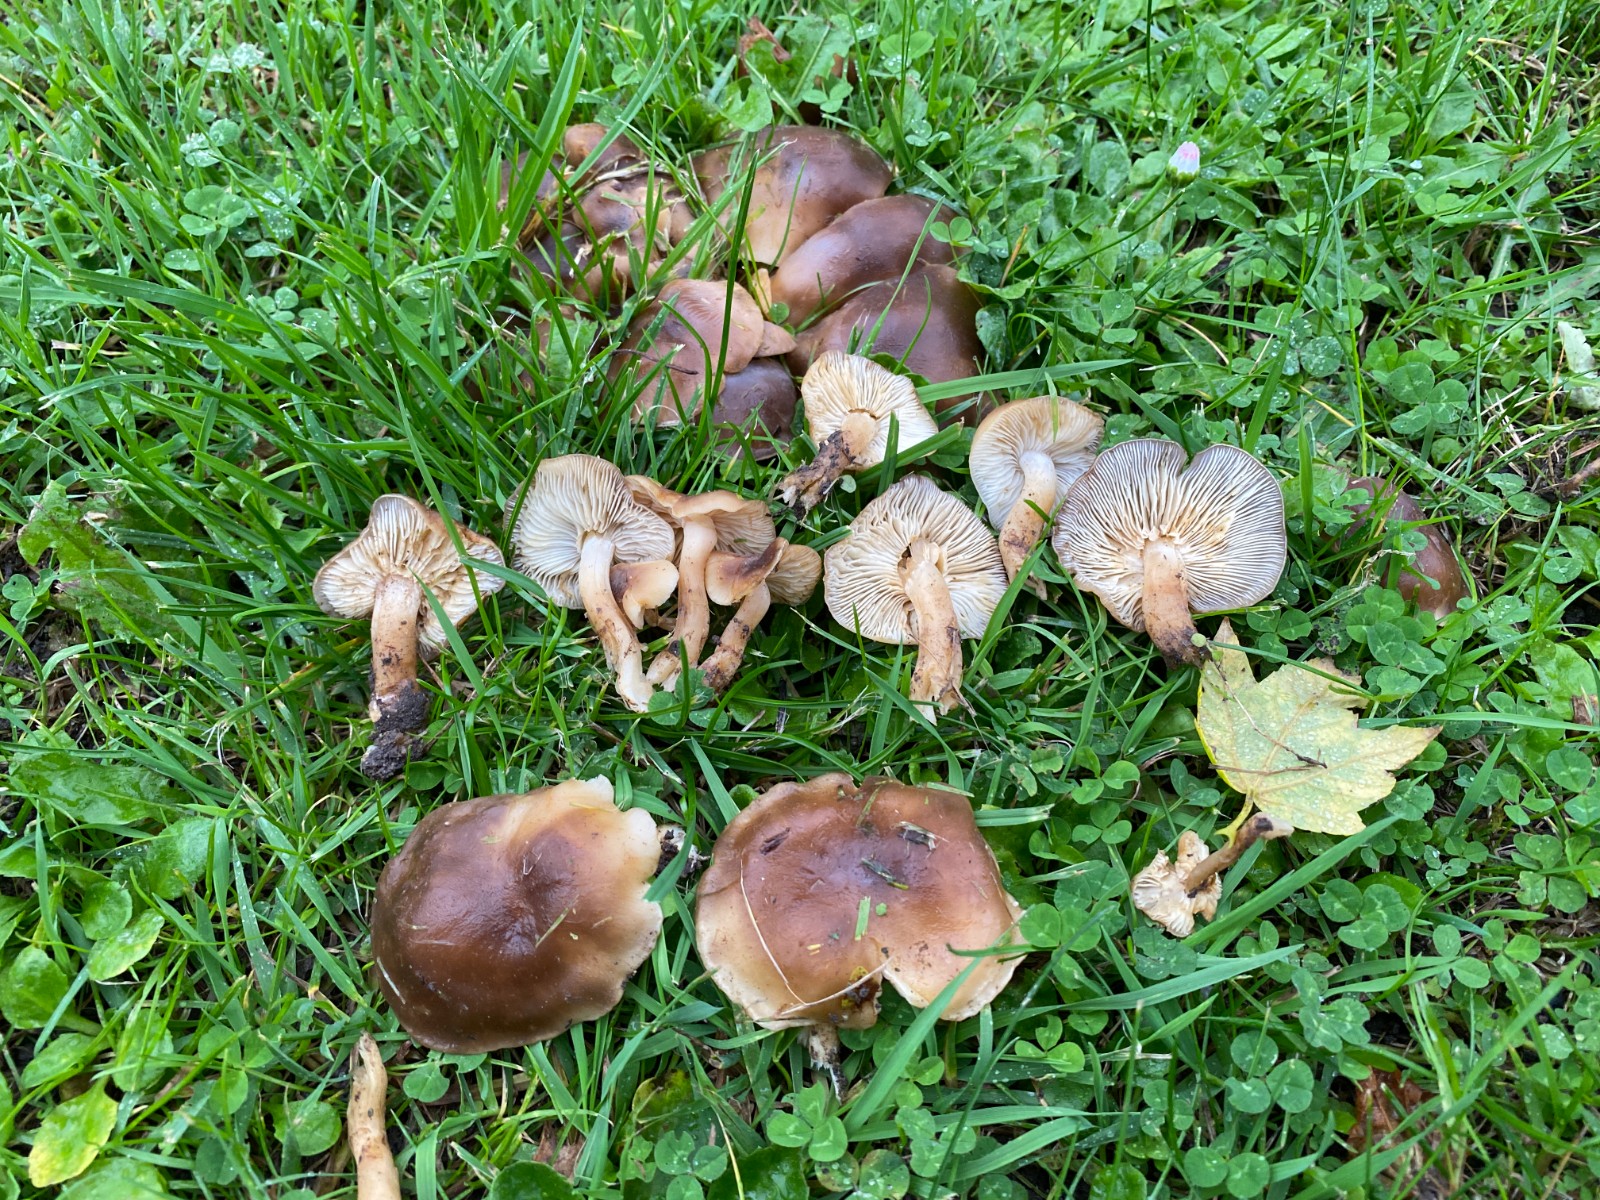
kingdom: Fungi
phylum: Basidiomycota
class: Agaricomycetes
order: Agaricales
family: Lyophyllaceae
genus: Lyophyllum
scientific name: Lyophyllum decastes
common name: røggrå gråblad
